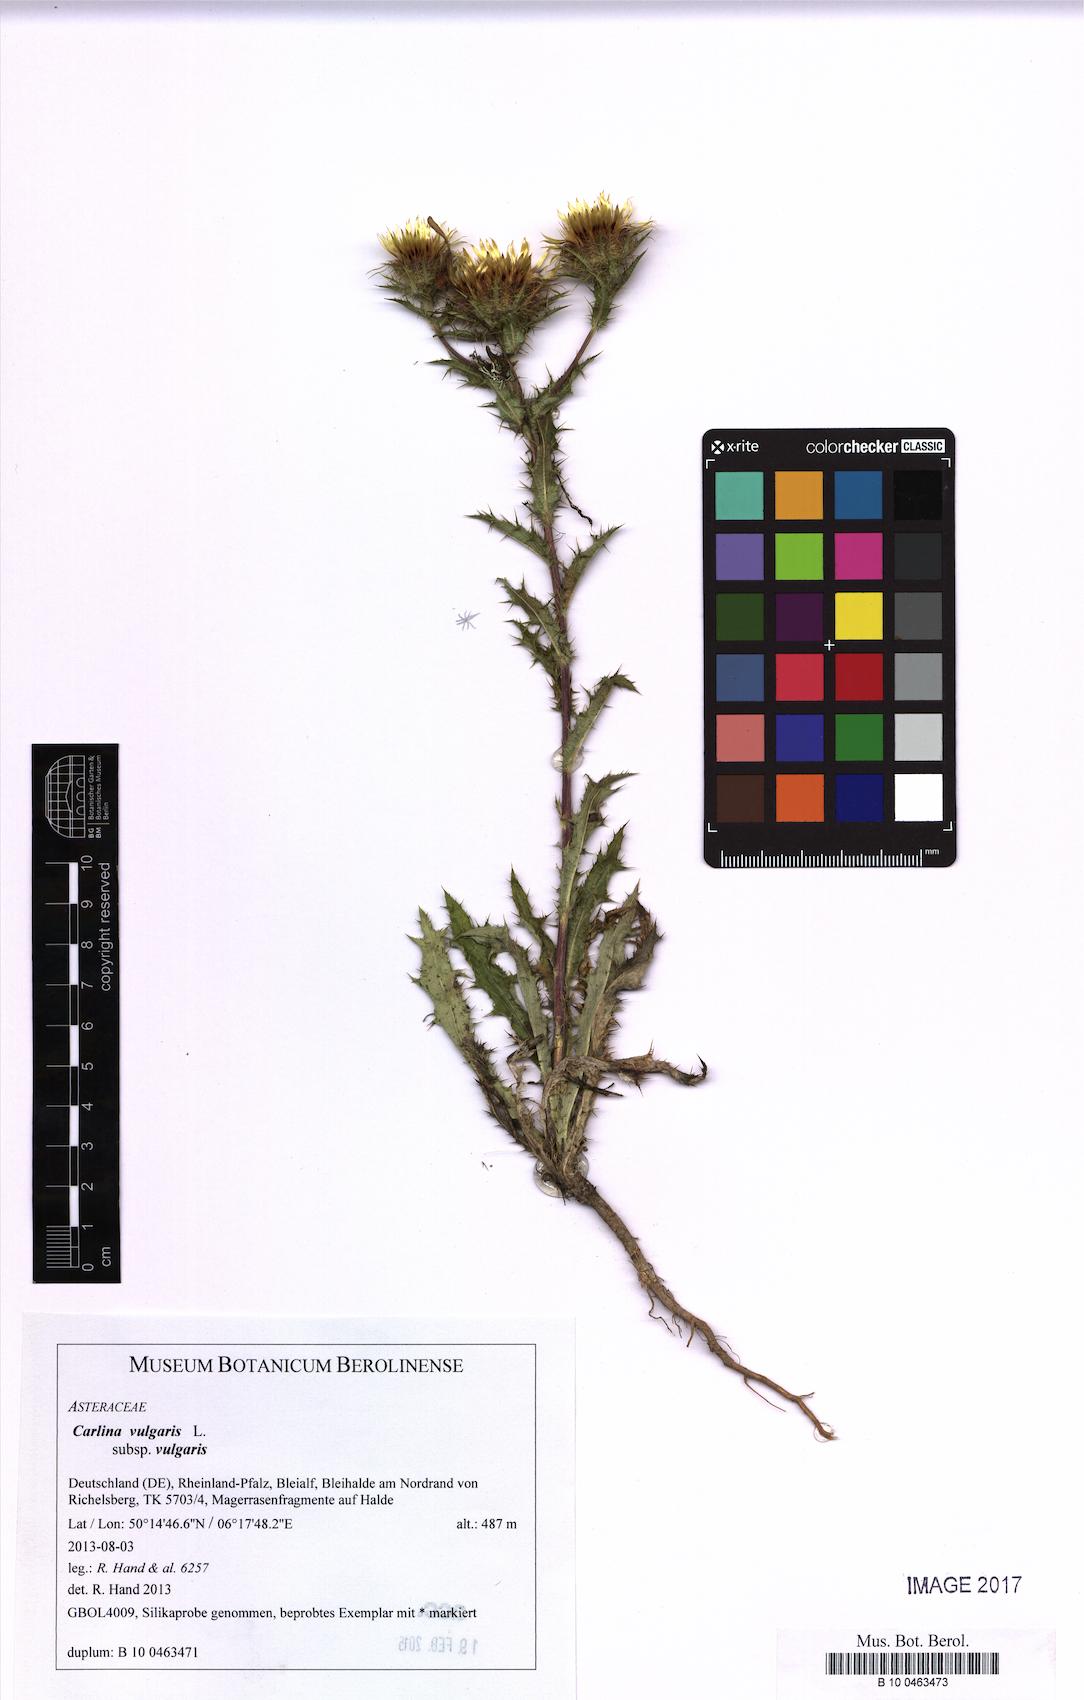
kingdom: Plantae
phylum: Tracheophyta
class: Magnoliopsida
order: Asterales
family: Asteraceae
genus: Carlina
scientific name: Carlina vulgaris
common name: Carline thistle
